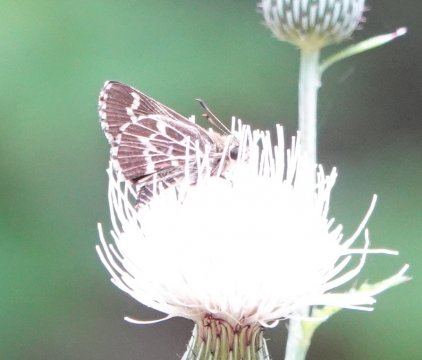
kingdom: Animalia
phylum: Arthropoda
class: Insecta
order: Lepidoptera
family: Hesperiidae
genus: Mastor
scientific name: Mastor aesculapius
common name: Lace-winged Roadside-Skipper
